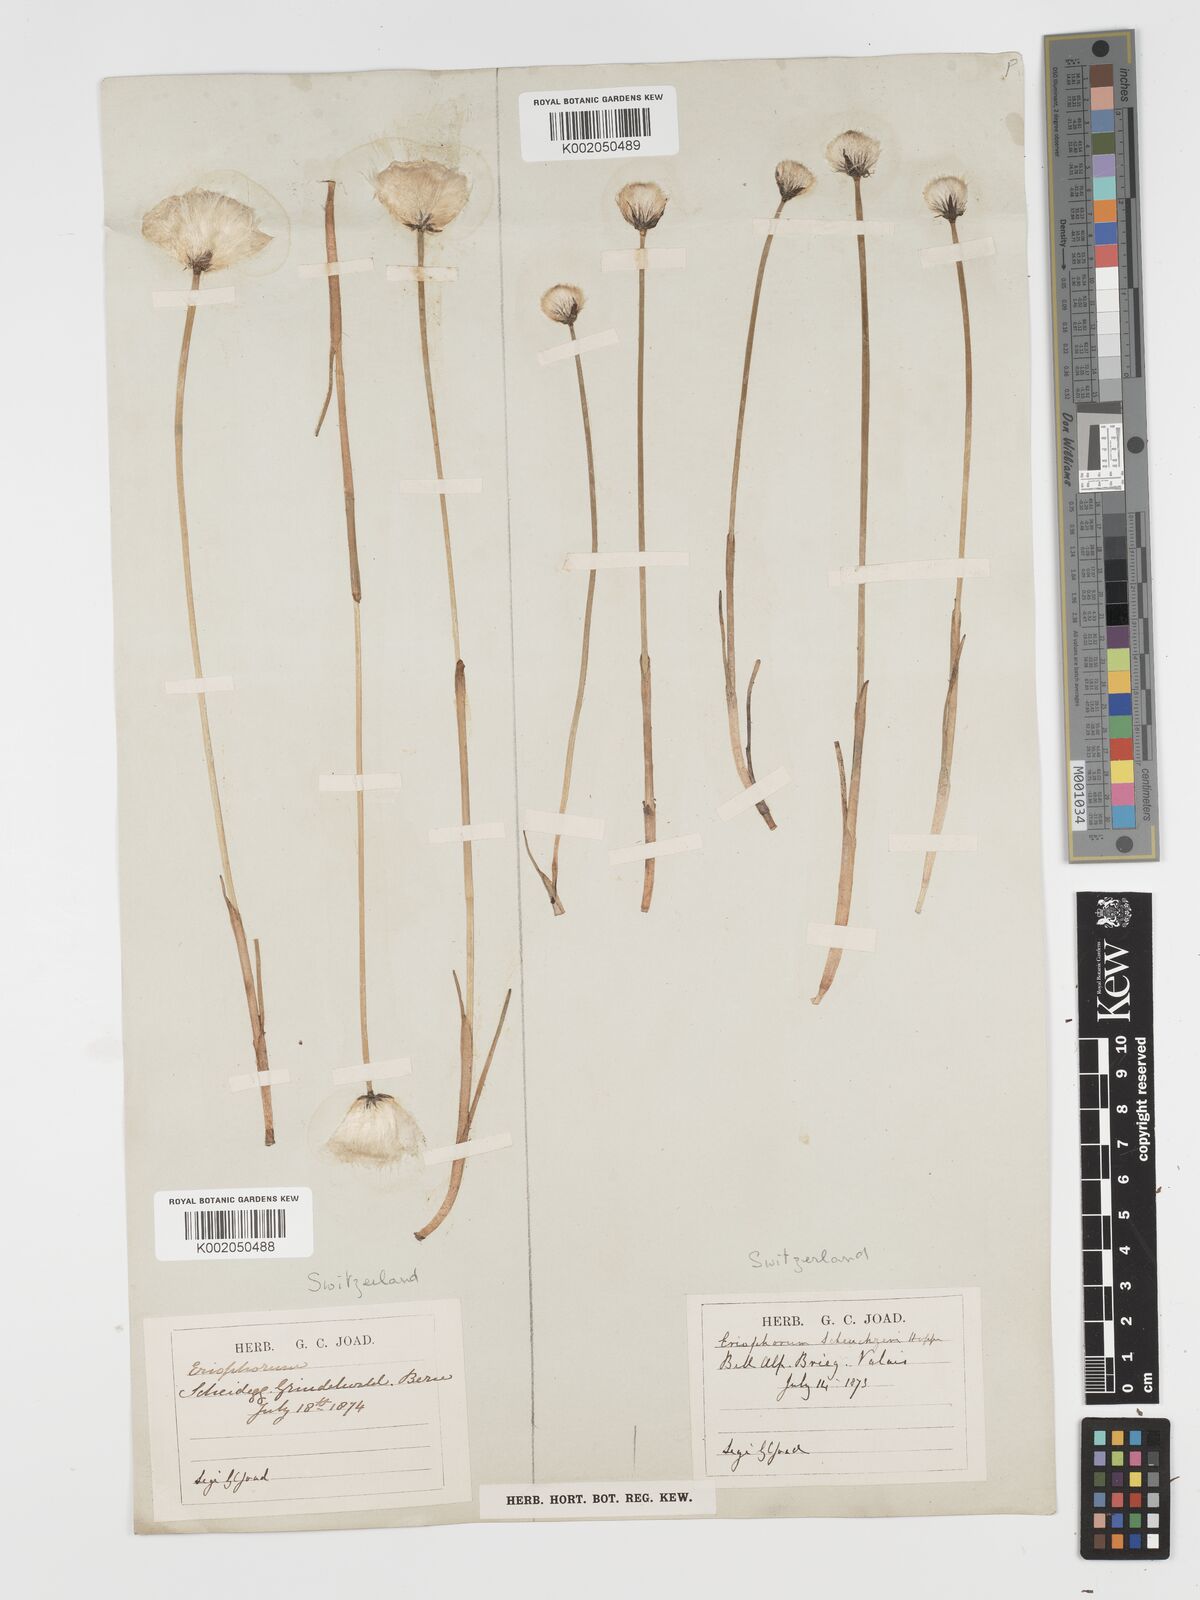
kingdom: Plantae
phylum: Tracheophyta
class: Liliopsida
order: Poales
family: Cyperaceae
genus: Eriophorum
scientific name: Eriophorum scheuchzeri
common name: Scheuchzer's cottongrass
